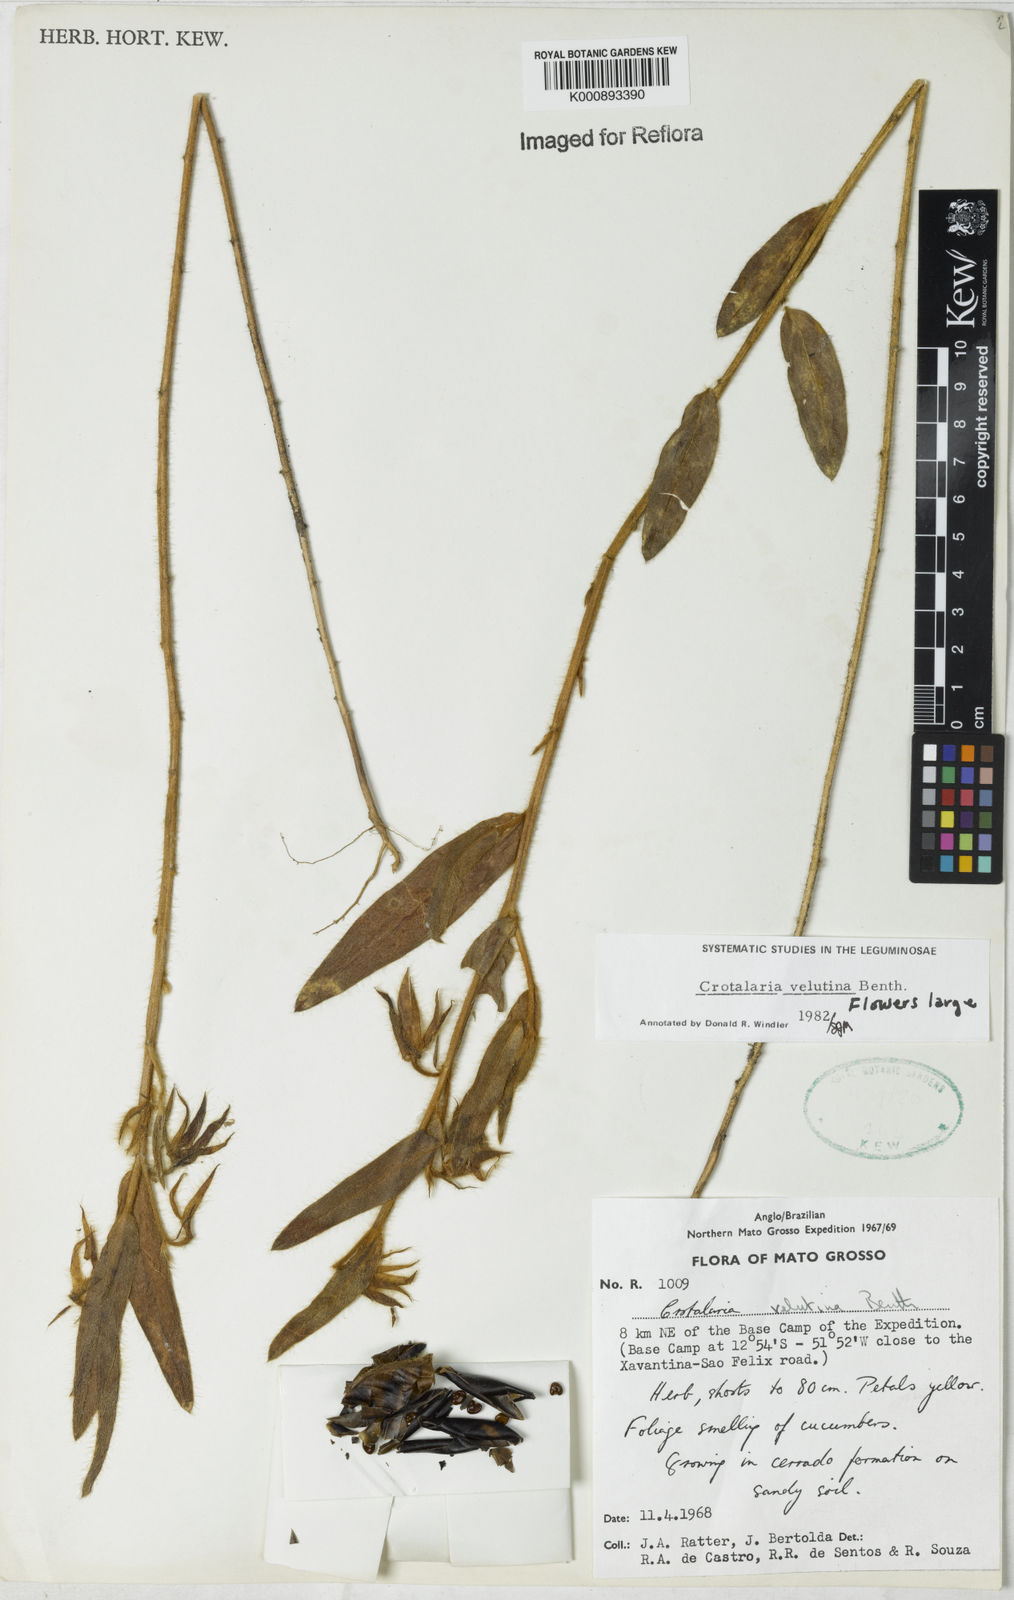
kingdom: Plantae
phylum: Tracheophyta
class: Magnoliopsida
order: Fabales
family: Fabaceae
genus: Crotalaria
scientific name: Crotalaria velutina
